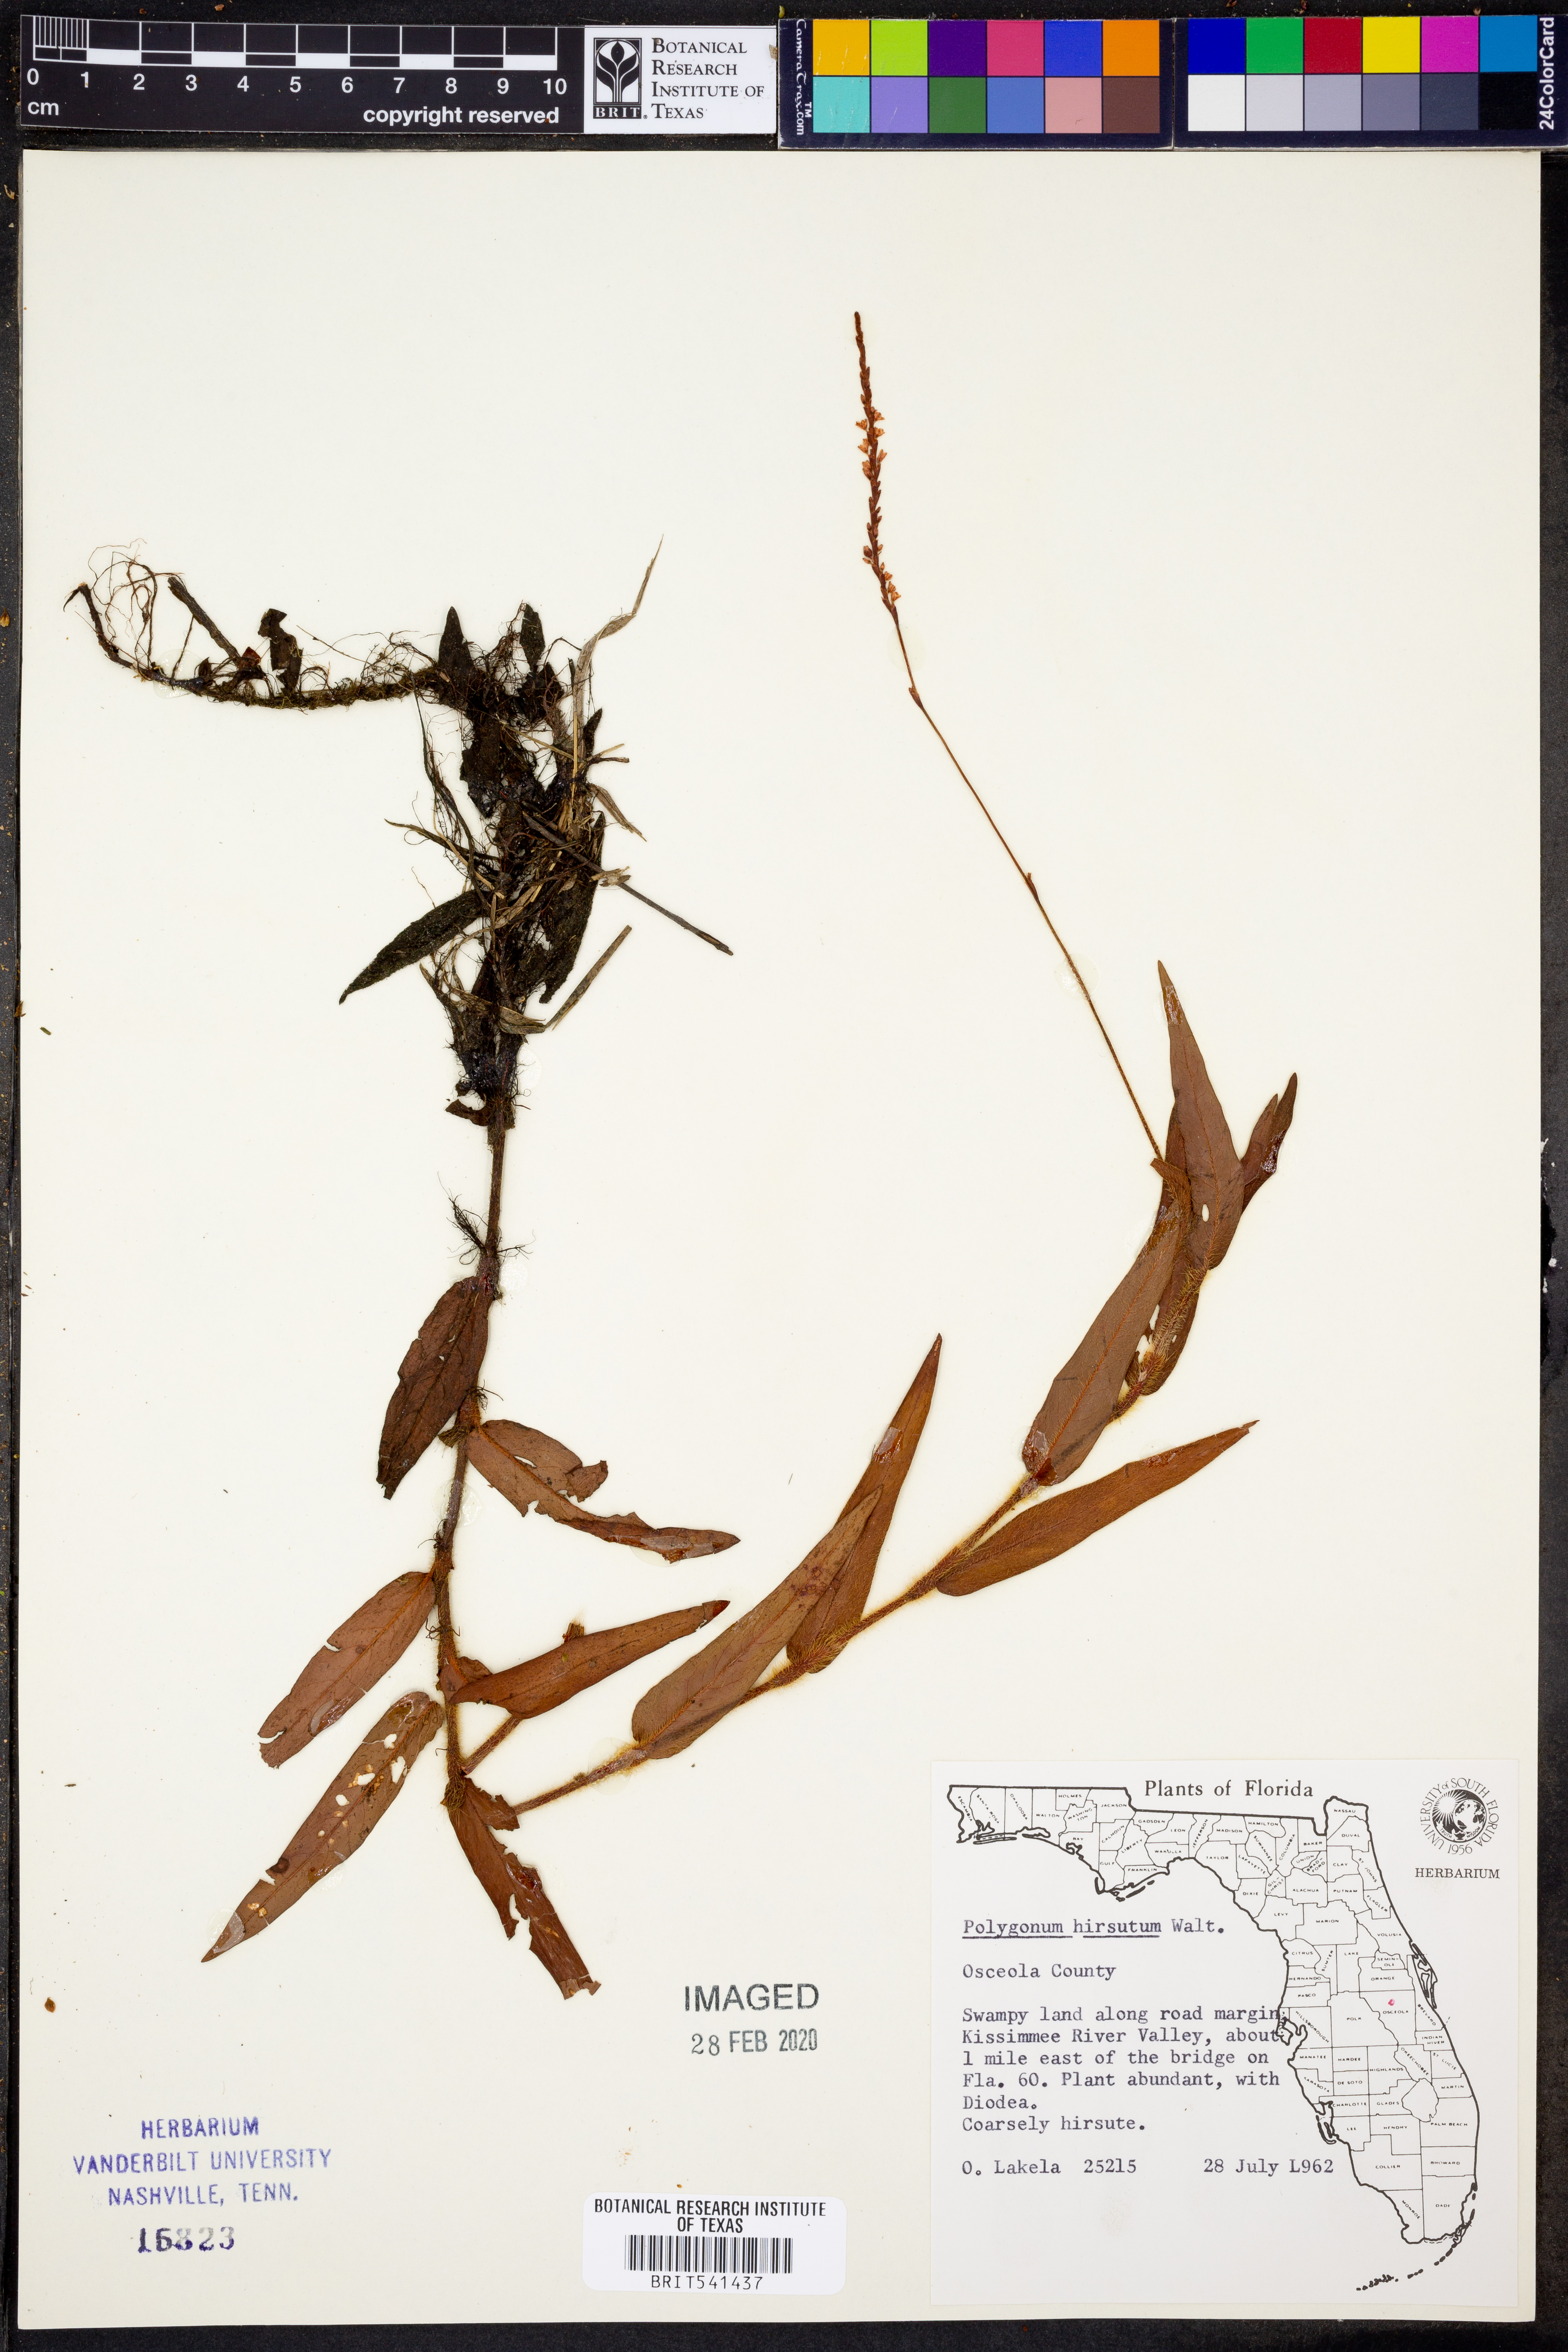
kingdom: Plantae
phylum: Tracheophyta
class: Magnoliopsida
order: Caryophyllales
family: Polygonaceae
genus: Persicaria
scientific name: Persicaria hirsuta
